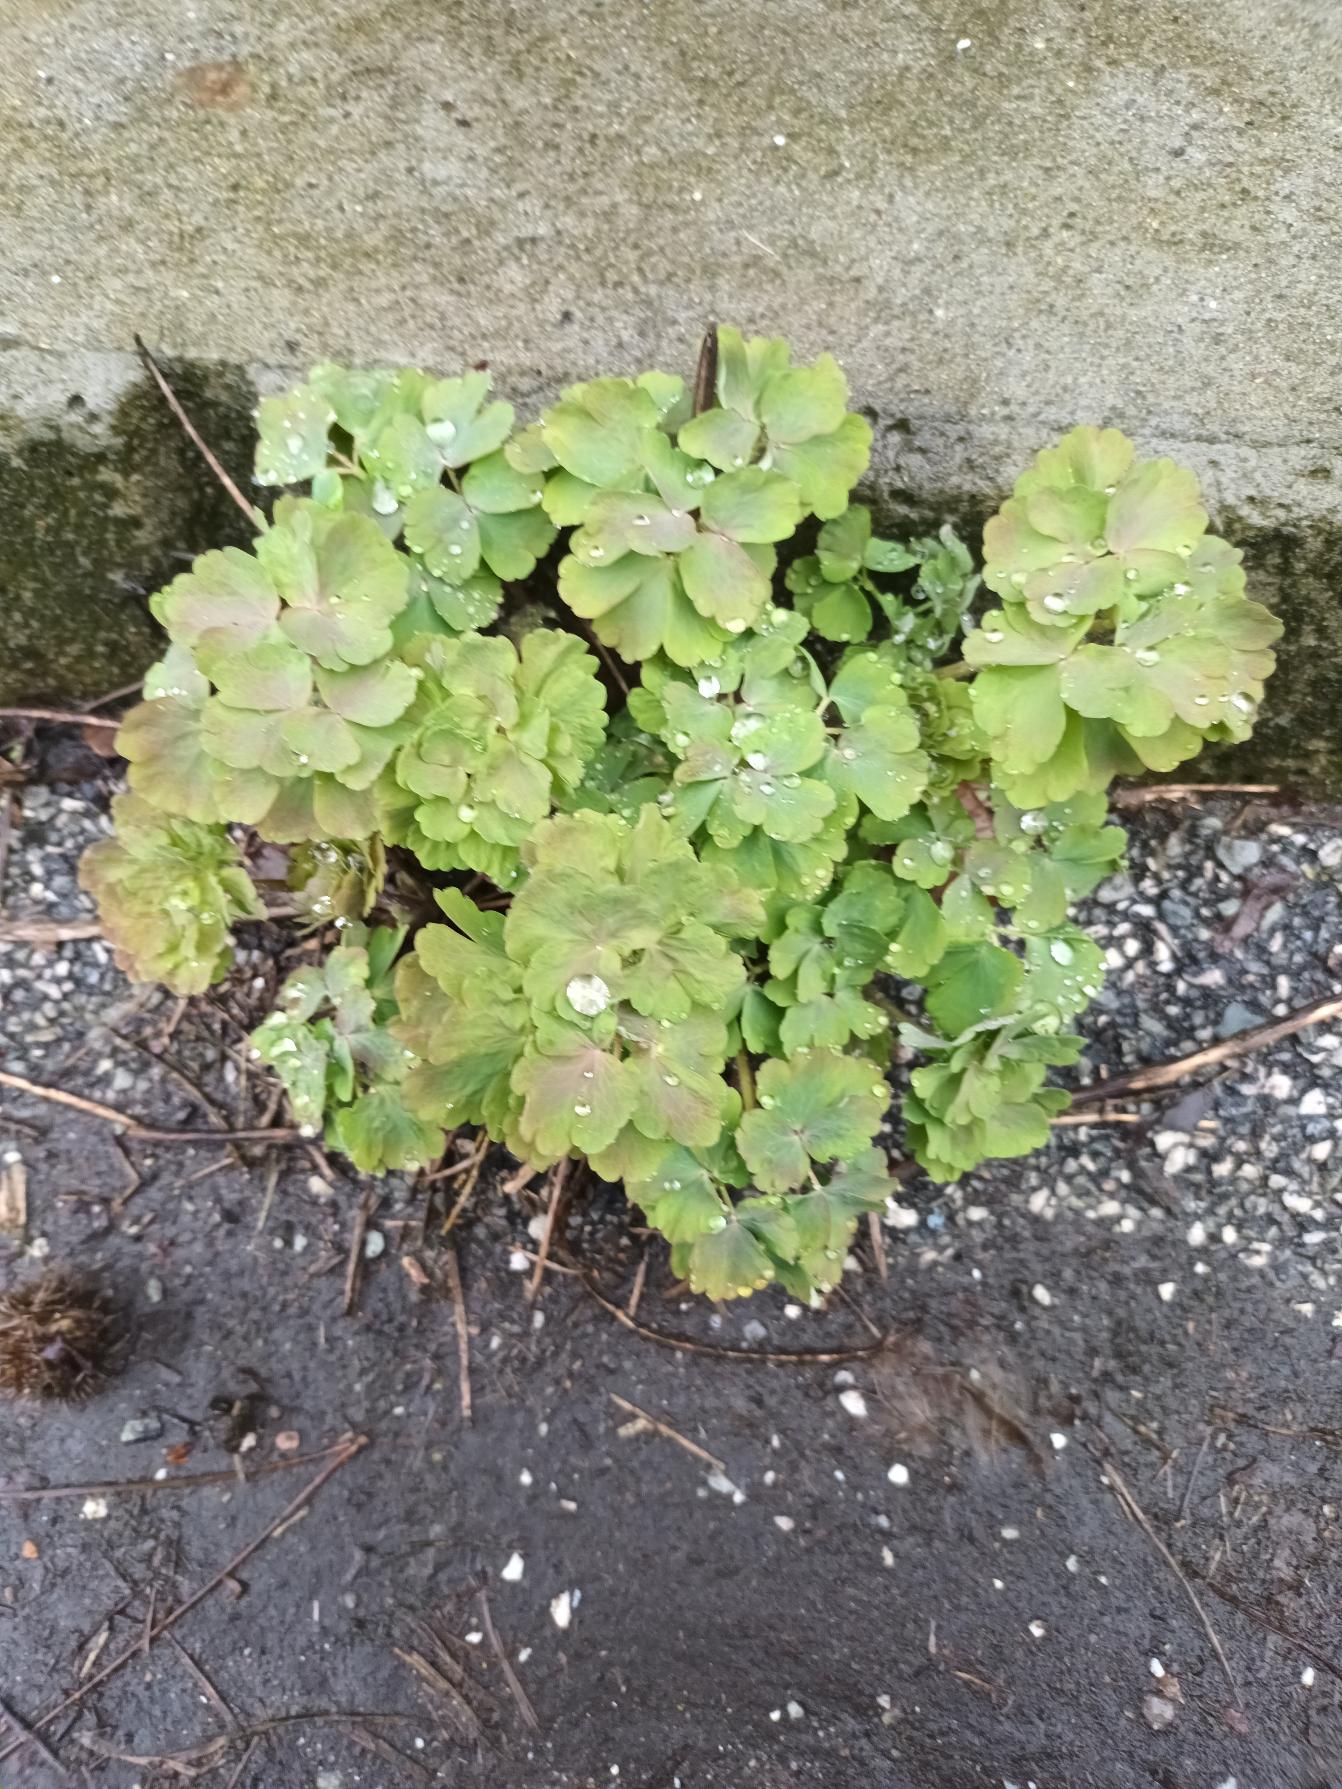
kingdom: Plantae
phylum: Tracheophyta
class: Magnoliopsida
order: Ranunculales
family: Ranunculaceae
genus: Aquilegia
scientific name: Aquilegia vulgaris
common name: Akeleje
